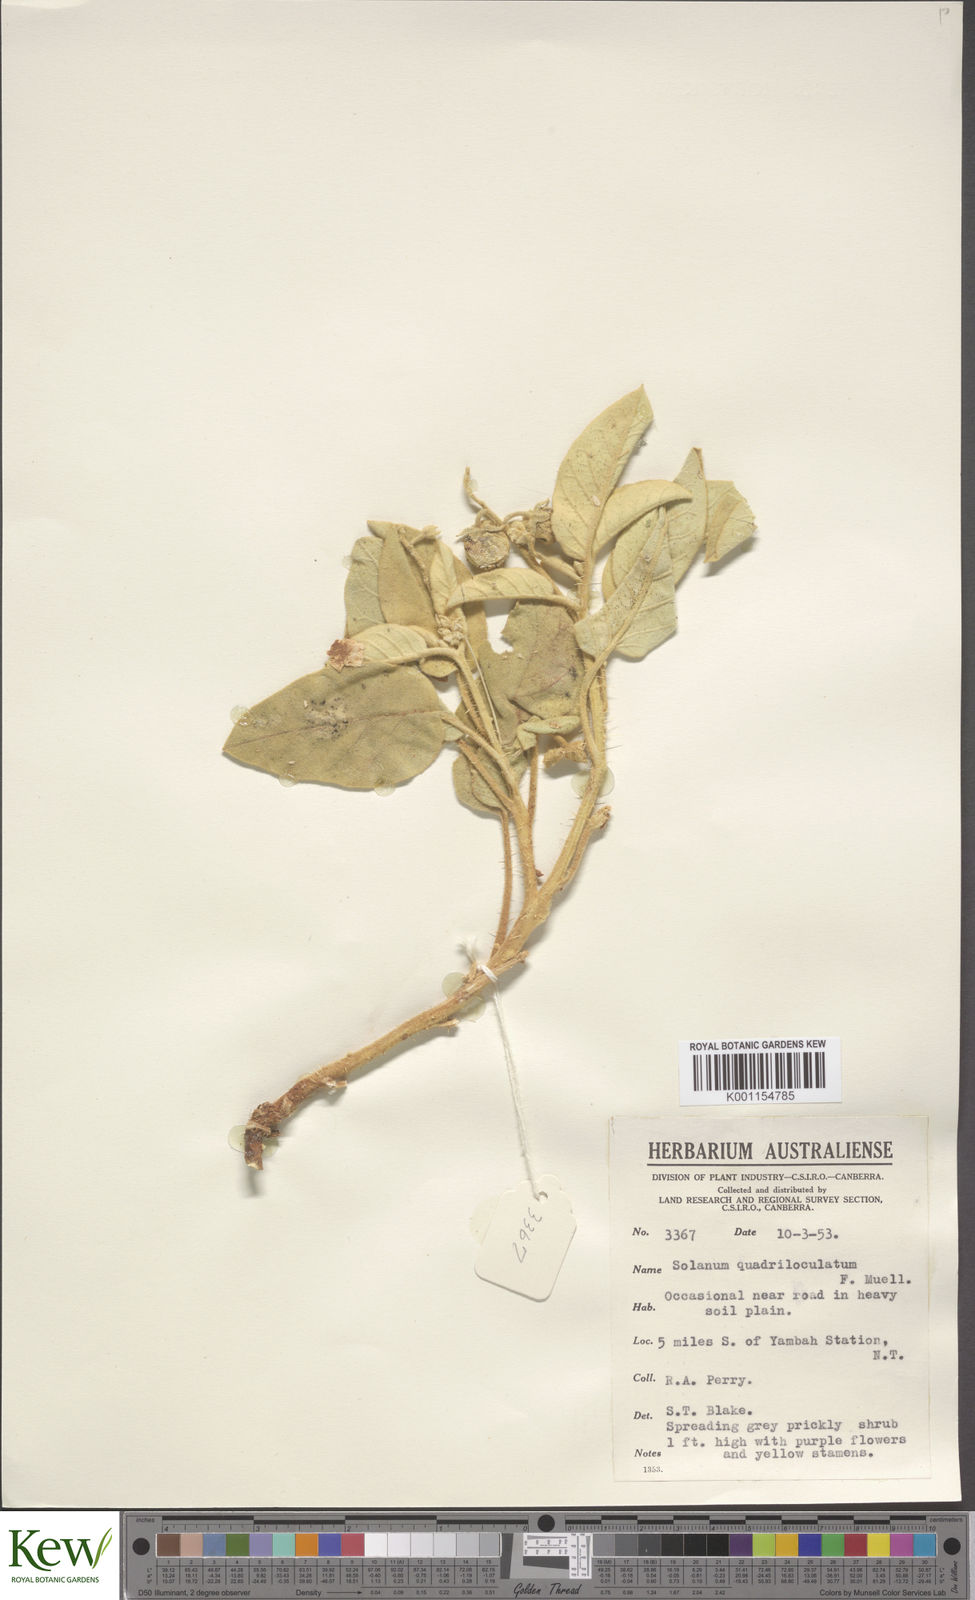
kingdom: Plantae
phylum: Tracheophyta
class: Magnoliopsida
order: Solanales
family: Solanaceae
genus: Solanum
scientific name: Solanum quadriloculatum
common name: Wild tomato
